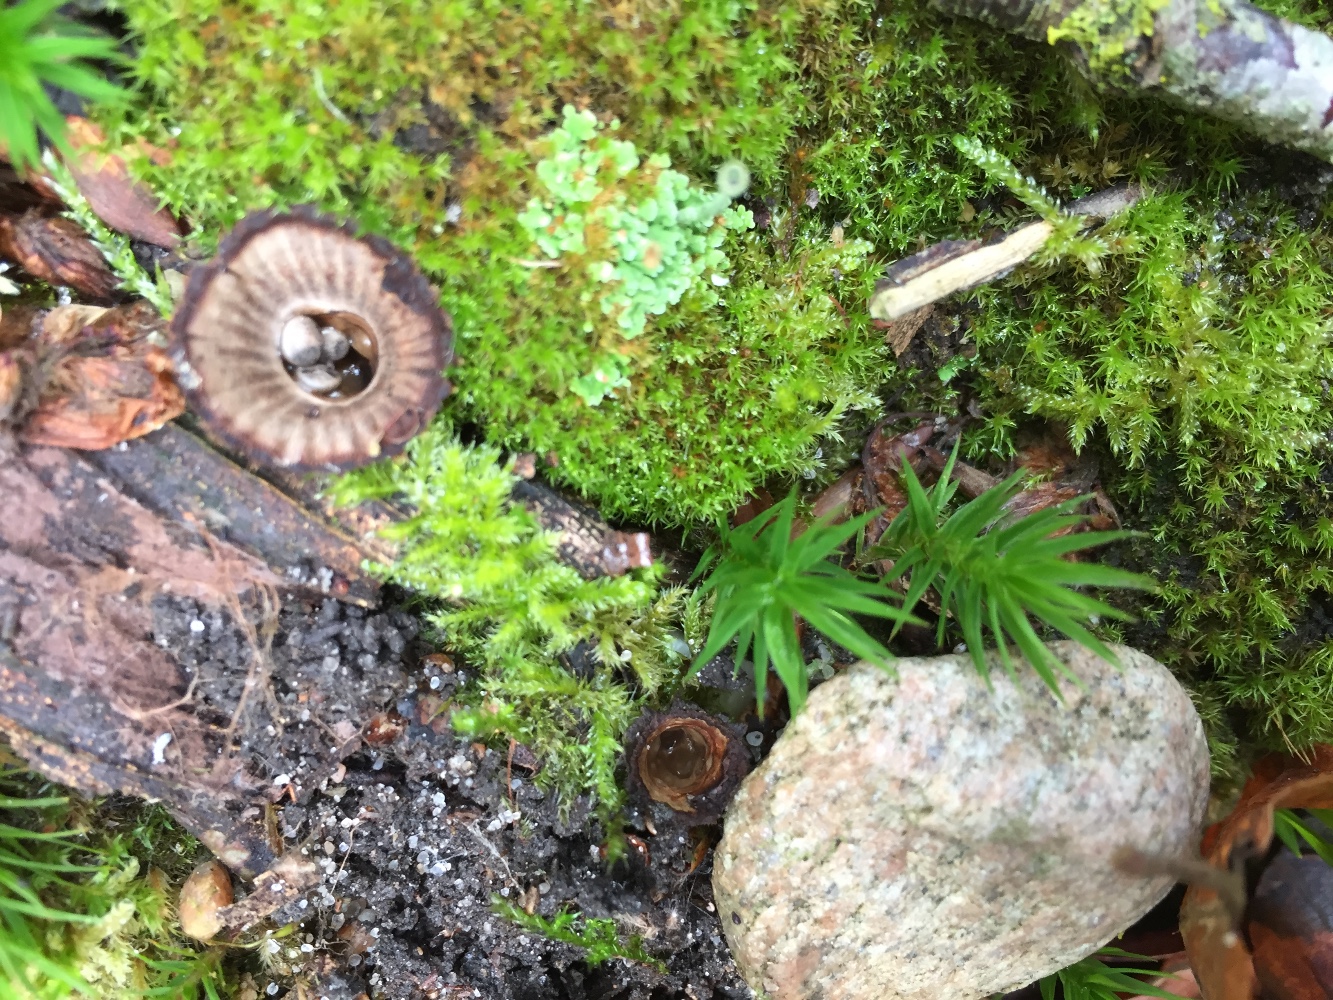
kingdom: Fungi
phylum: Basidiomycota
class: Agaricomycetes
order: Agaricales
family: Agaricaceae
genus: Cyathus
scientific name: Cyathus striatus
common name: stribet redesvamp
